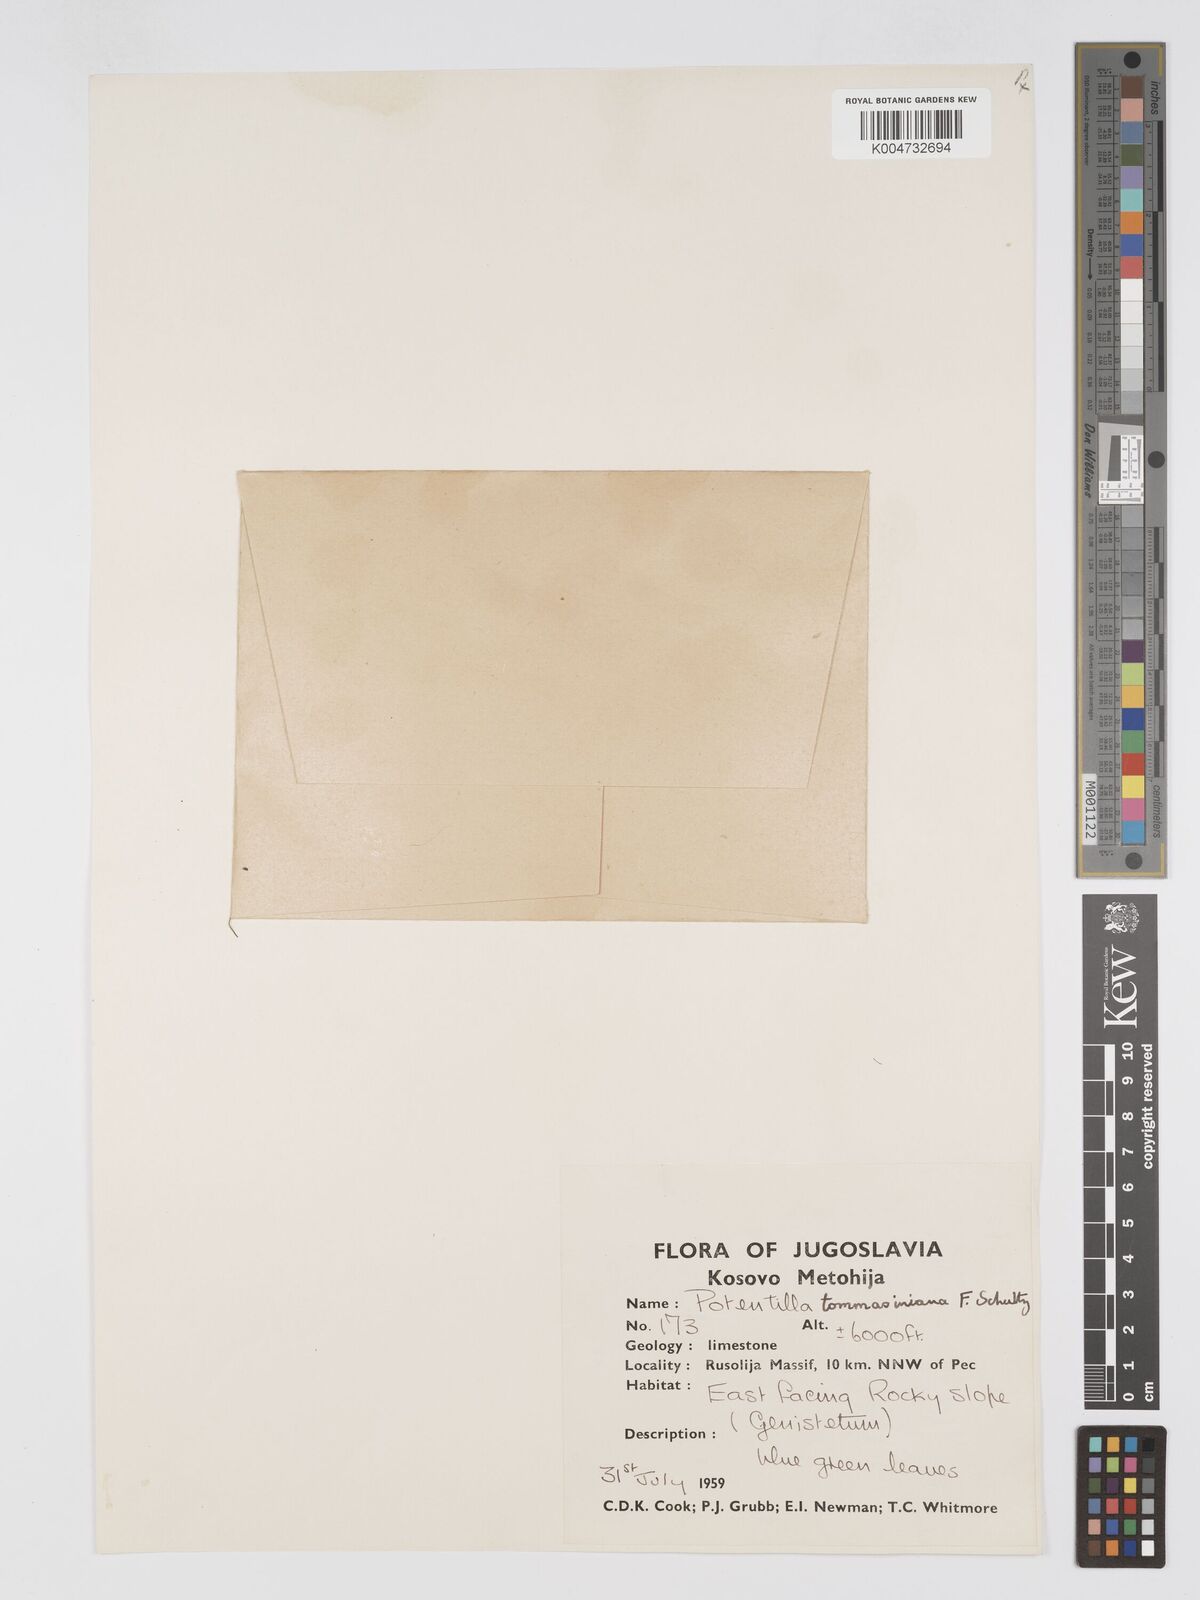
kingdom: Plantae
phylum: Tracheophyta
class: Magnoliopsida
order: Rosales
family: Rosaceae
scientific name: Rosaceae
